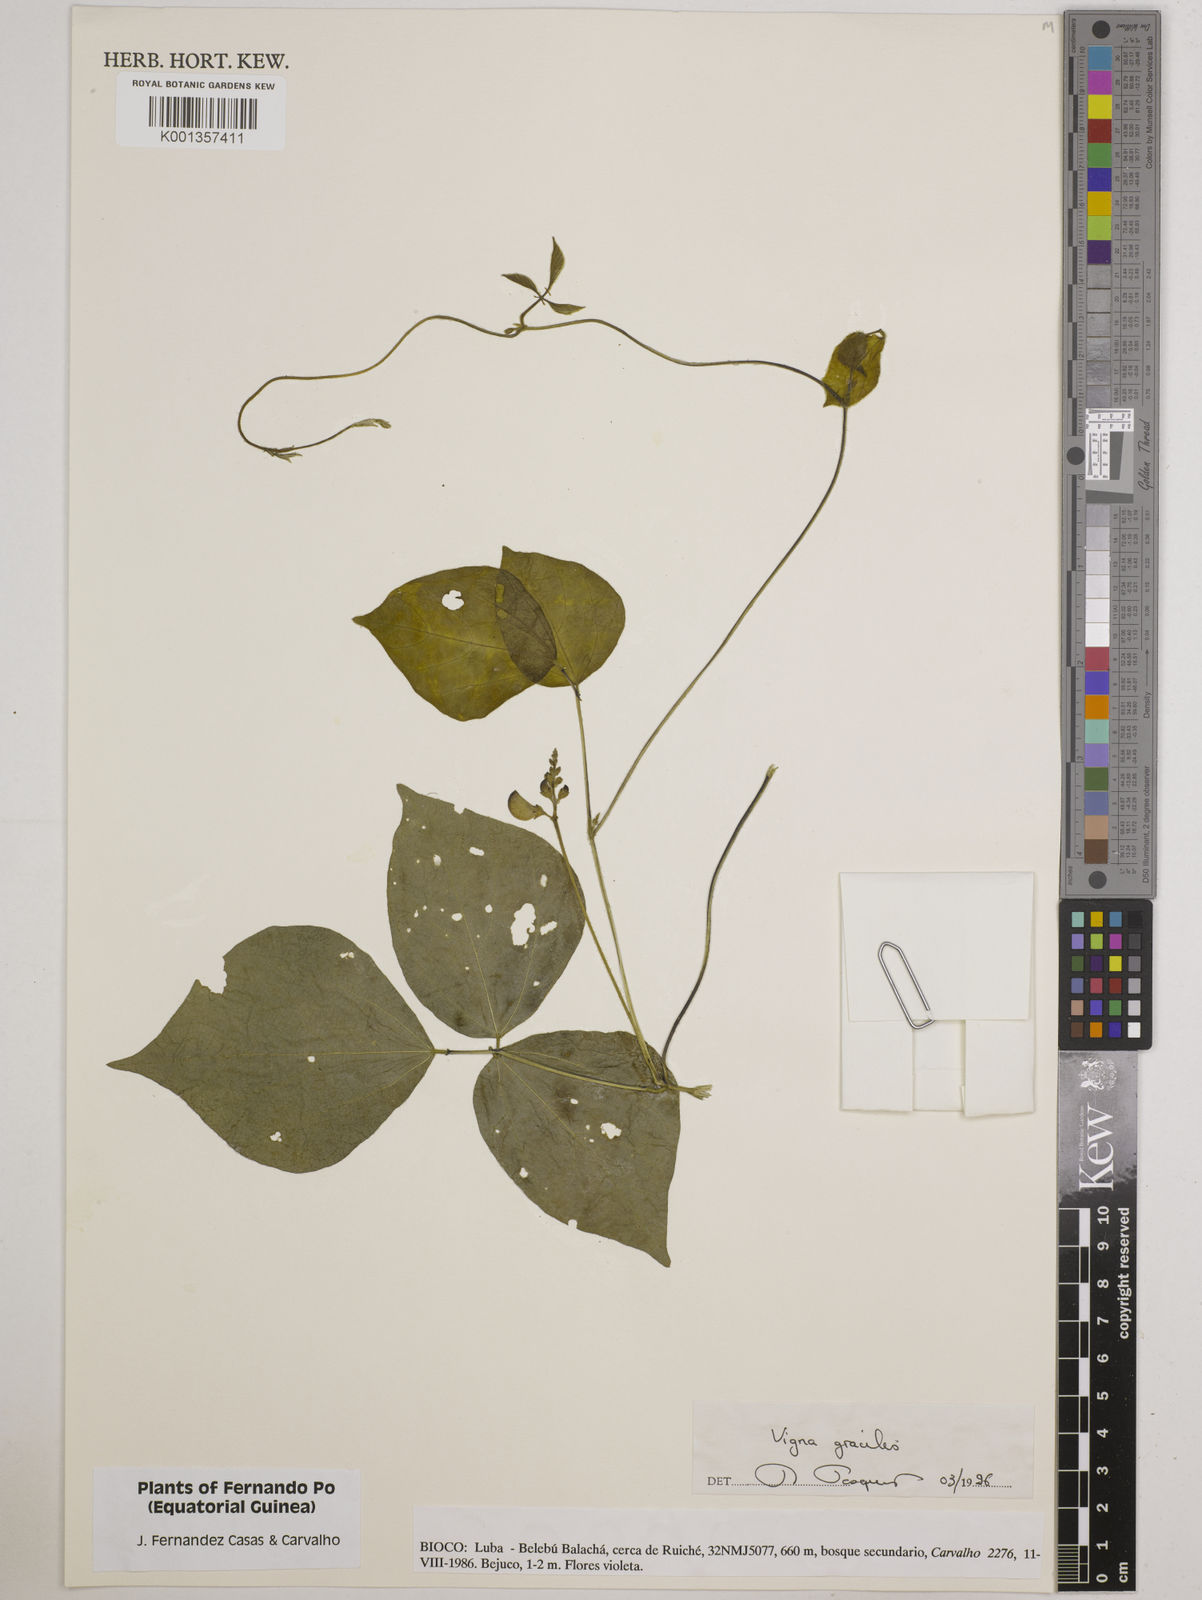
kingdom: Plantae
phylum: Tracheophyta
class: Magnoliopsida
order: Fabales
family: Fabaceae
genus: Vigna
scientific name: Vigna gracilis
